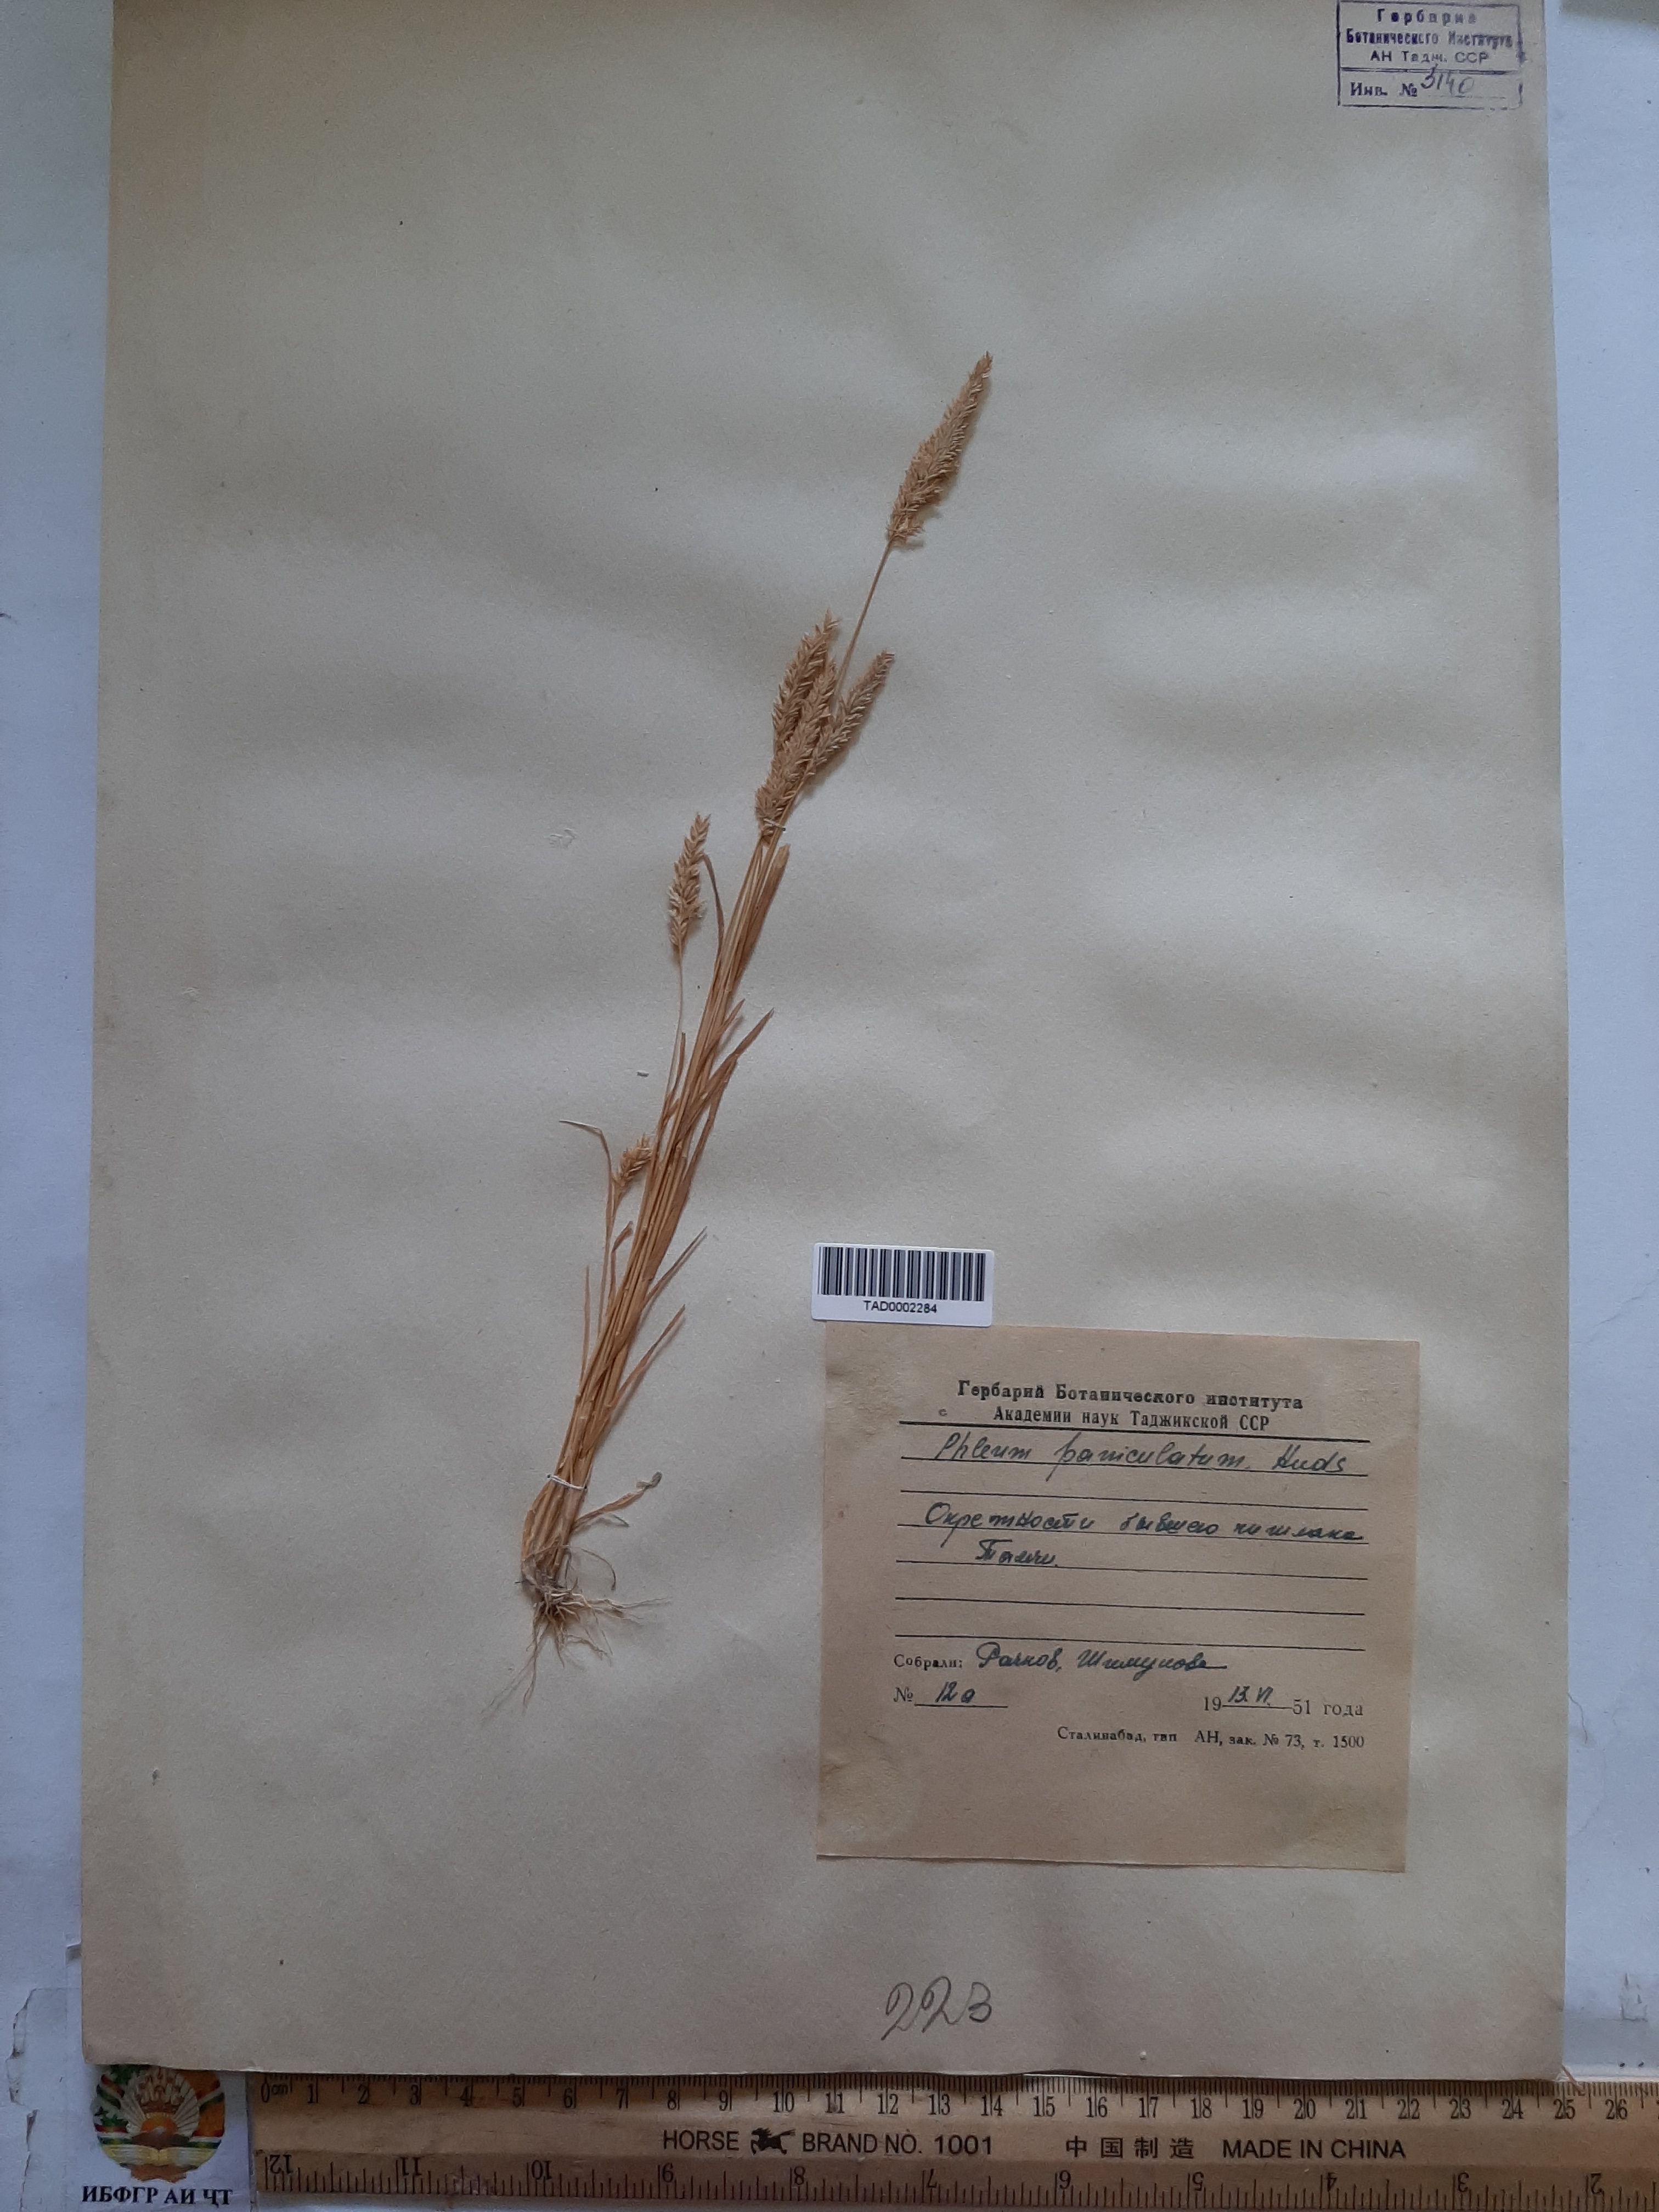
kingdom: Plantae
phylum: Tracheophyta
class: Liliopsida
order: Poales
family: Poaceae
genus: Phleum
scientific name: Phleum paniculatum
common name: British timothy
